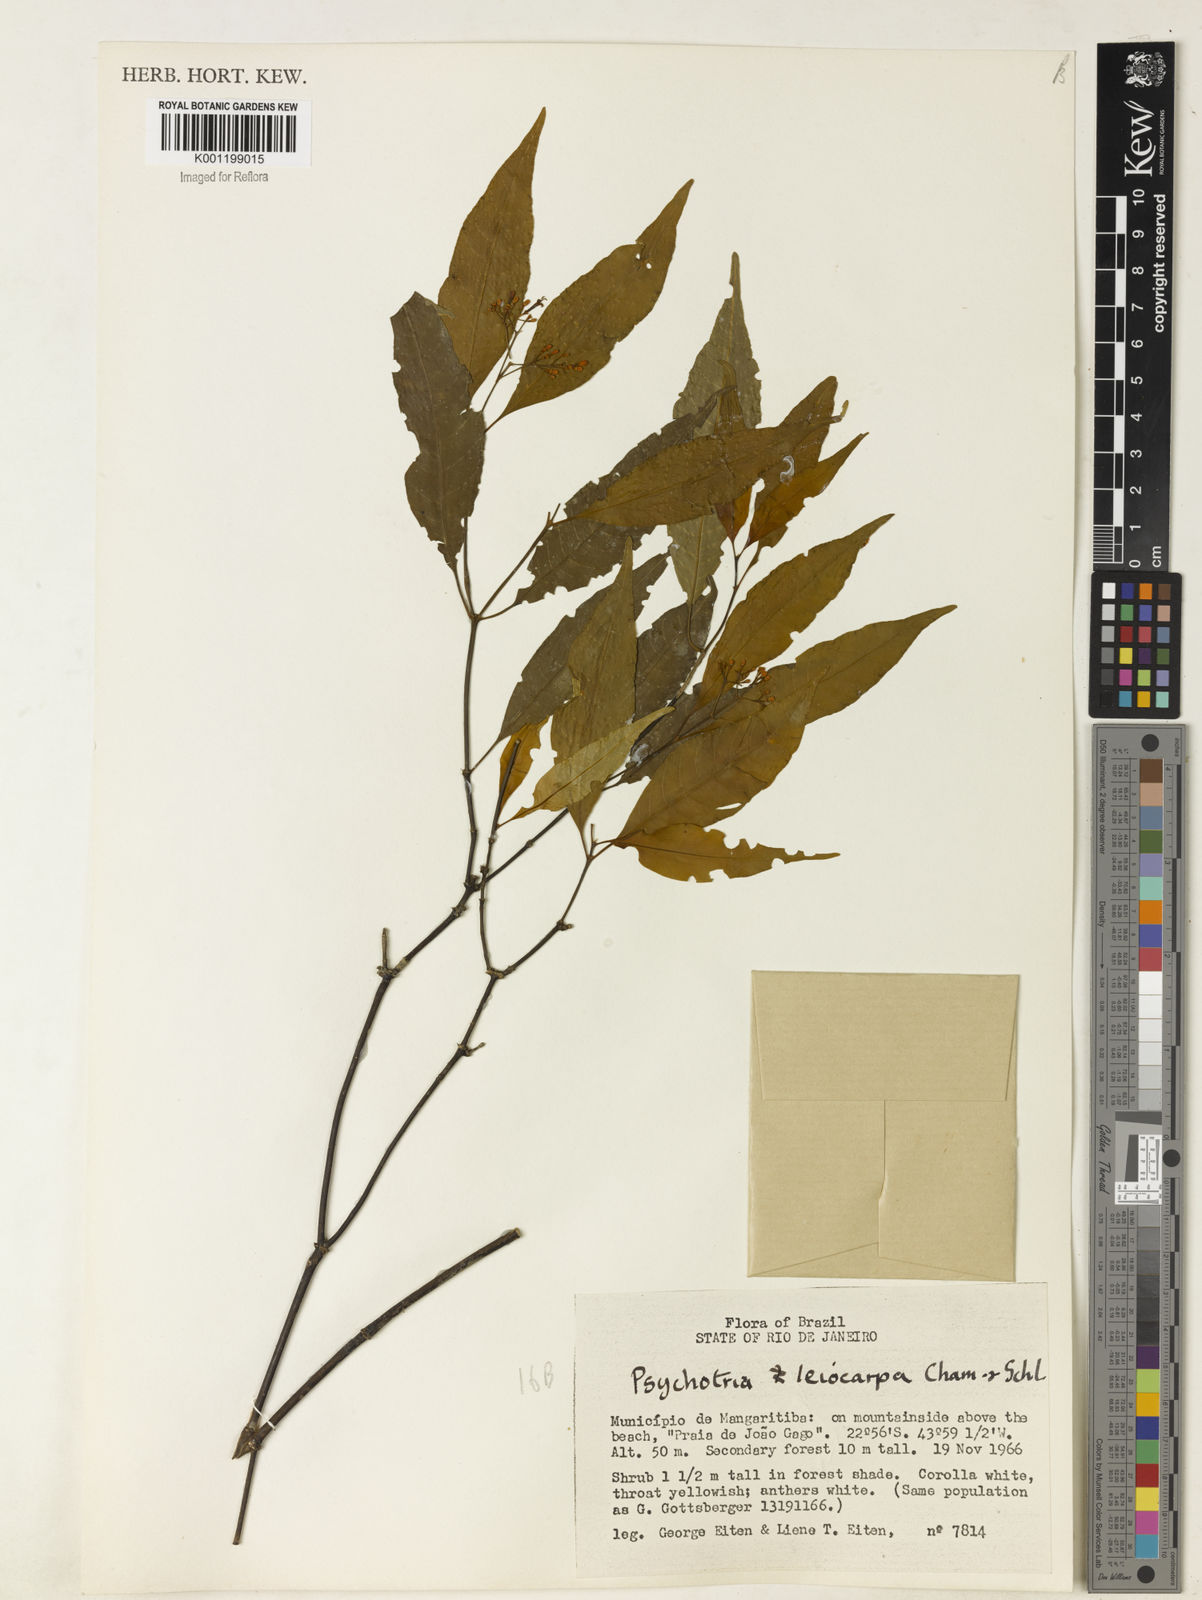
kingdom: Plantae
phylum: Tracheophyta
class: Magnoliopsida
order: Gentianales
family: Rubiaceae
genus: Psychotria
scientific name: Psychotria leiocarpa
